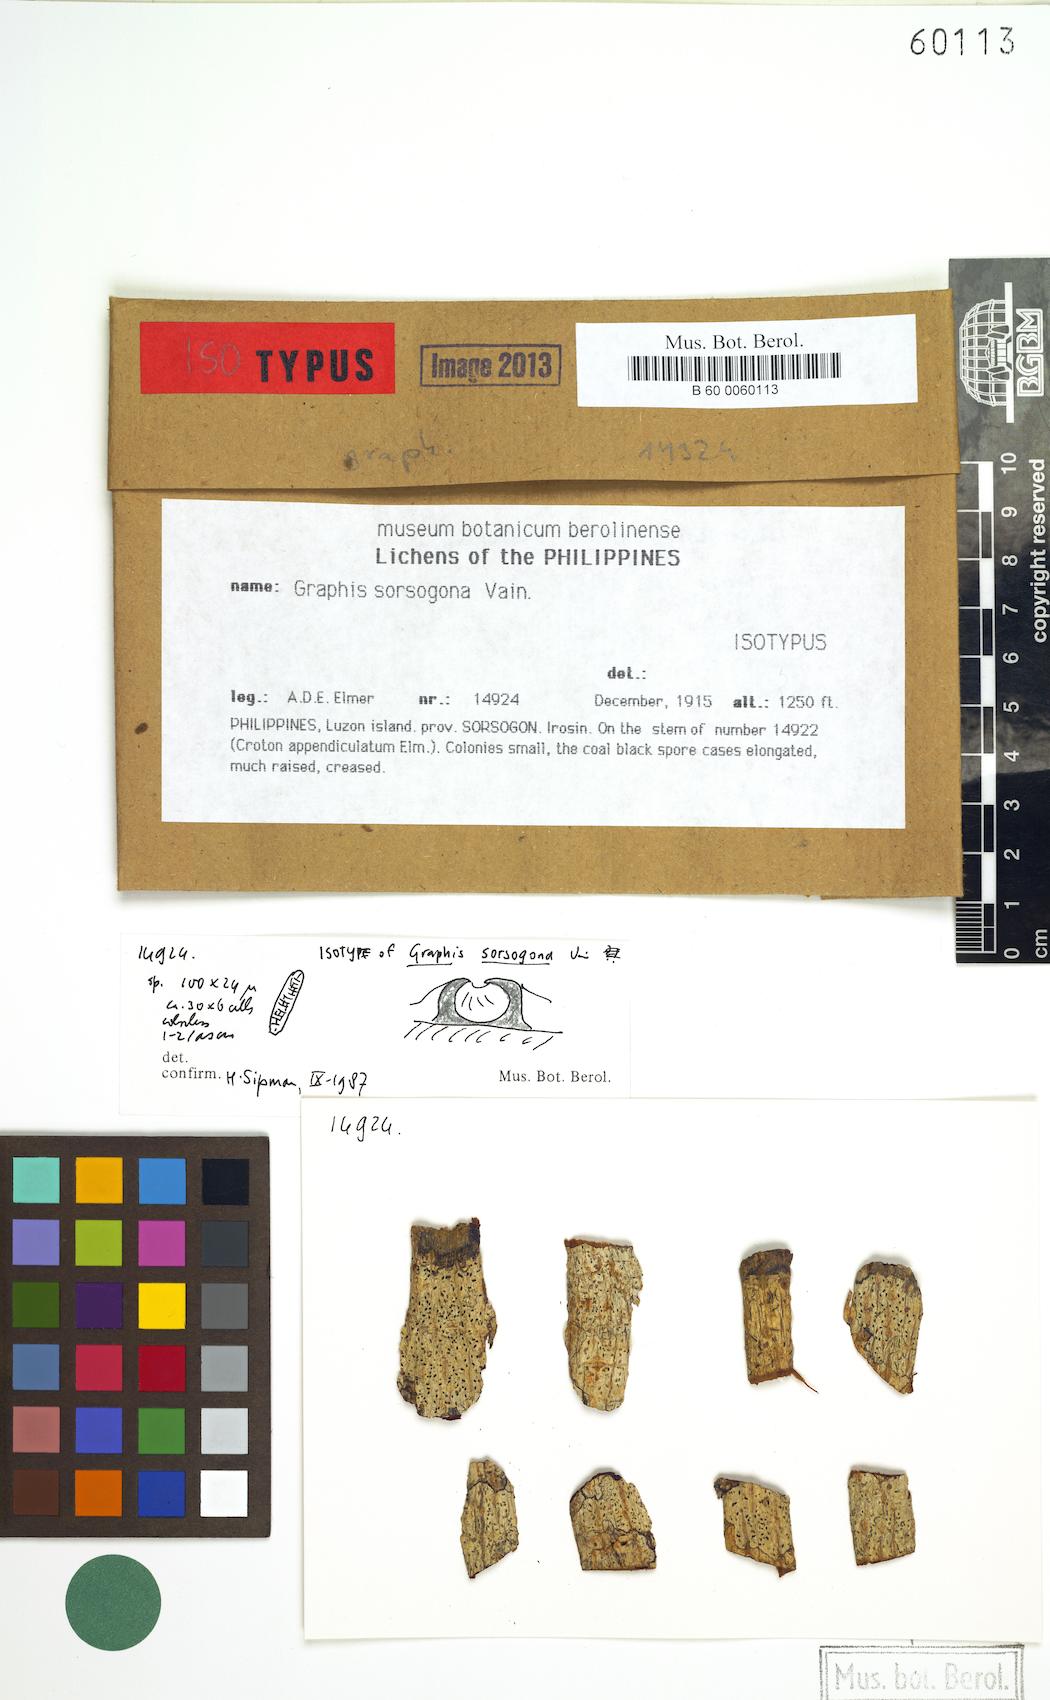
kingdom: Fungi
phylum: Ascomycota
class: Lecanoromycetes
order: Ostropales
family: Graphidaceae
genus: Allographa
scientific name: Allographa sorsogona
